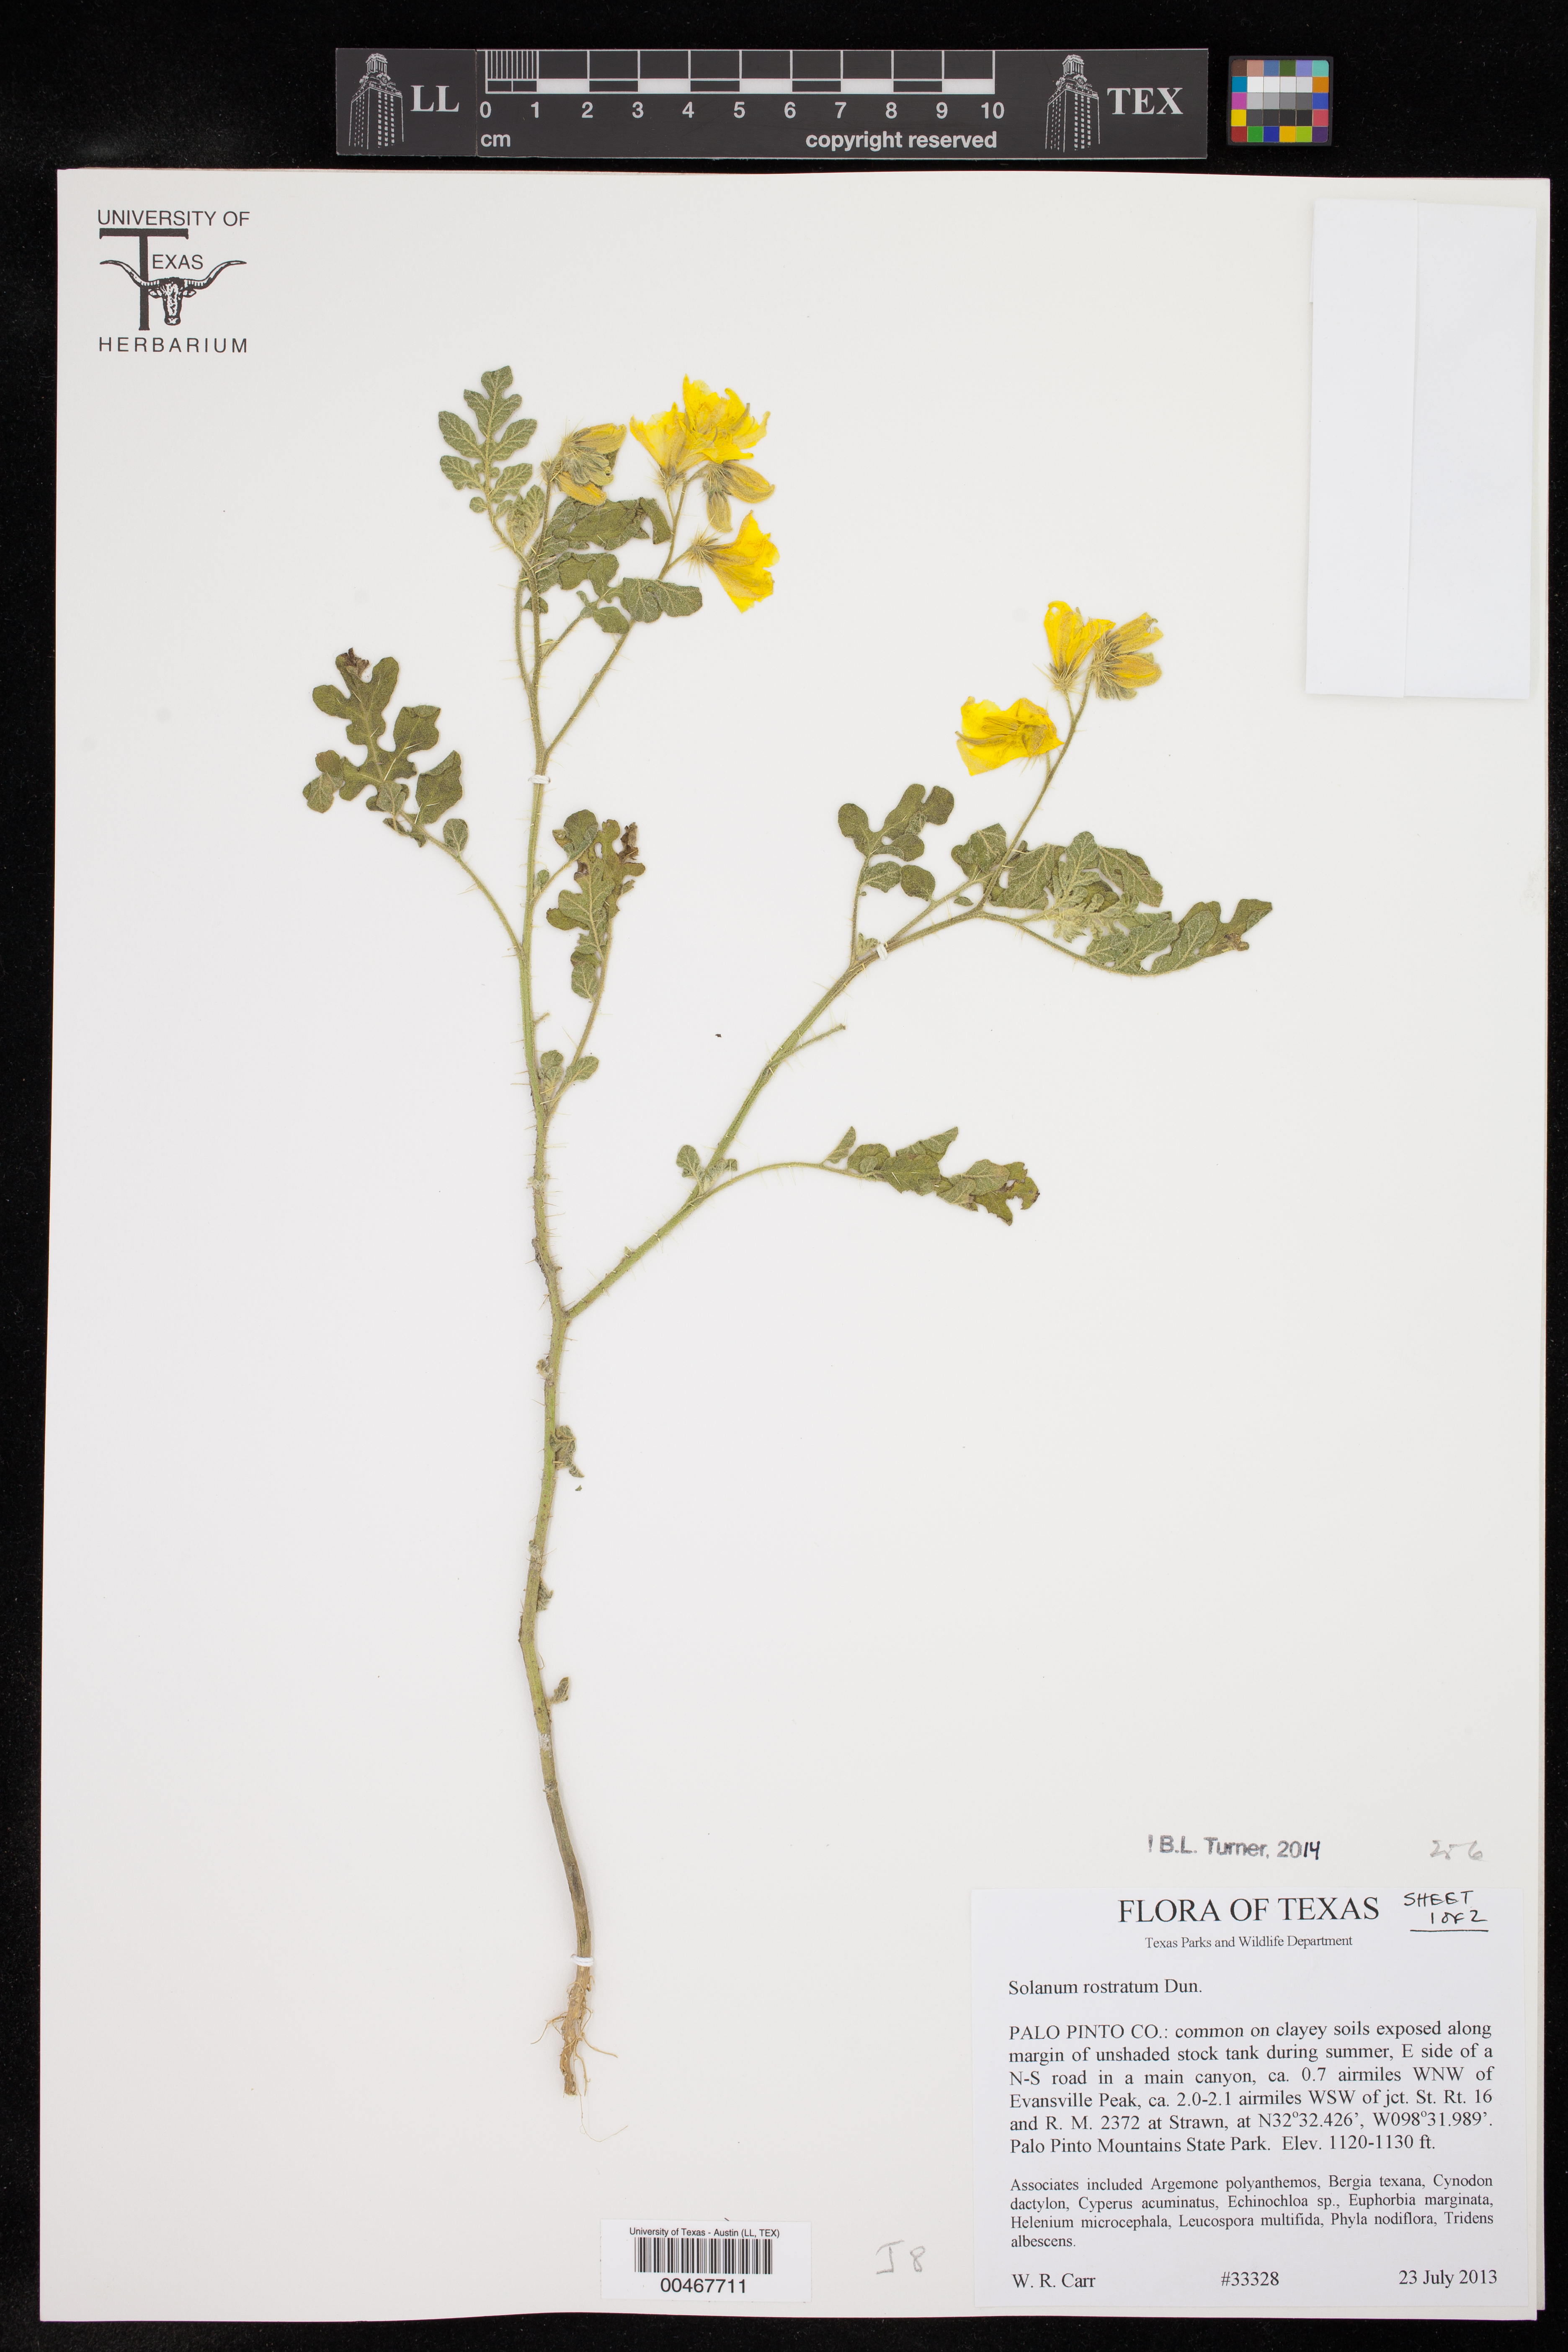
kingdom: Plantae
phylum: Tracheophyta
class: Magnoliopsida
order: Solanales
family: Solanaceae
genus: Solanum
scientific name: Solanum angustifolium
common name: Buffalobur nightshade
